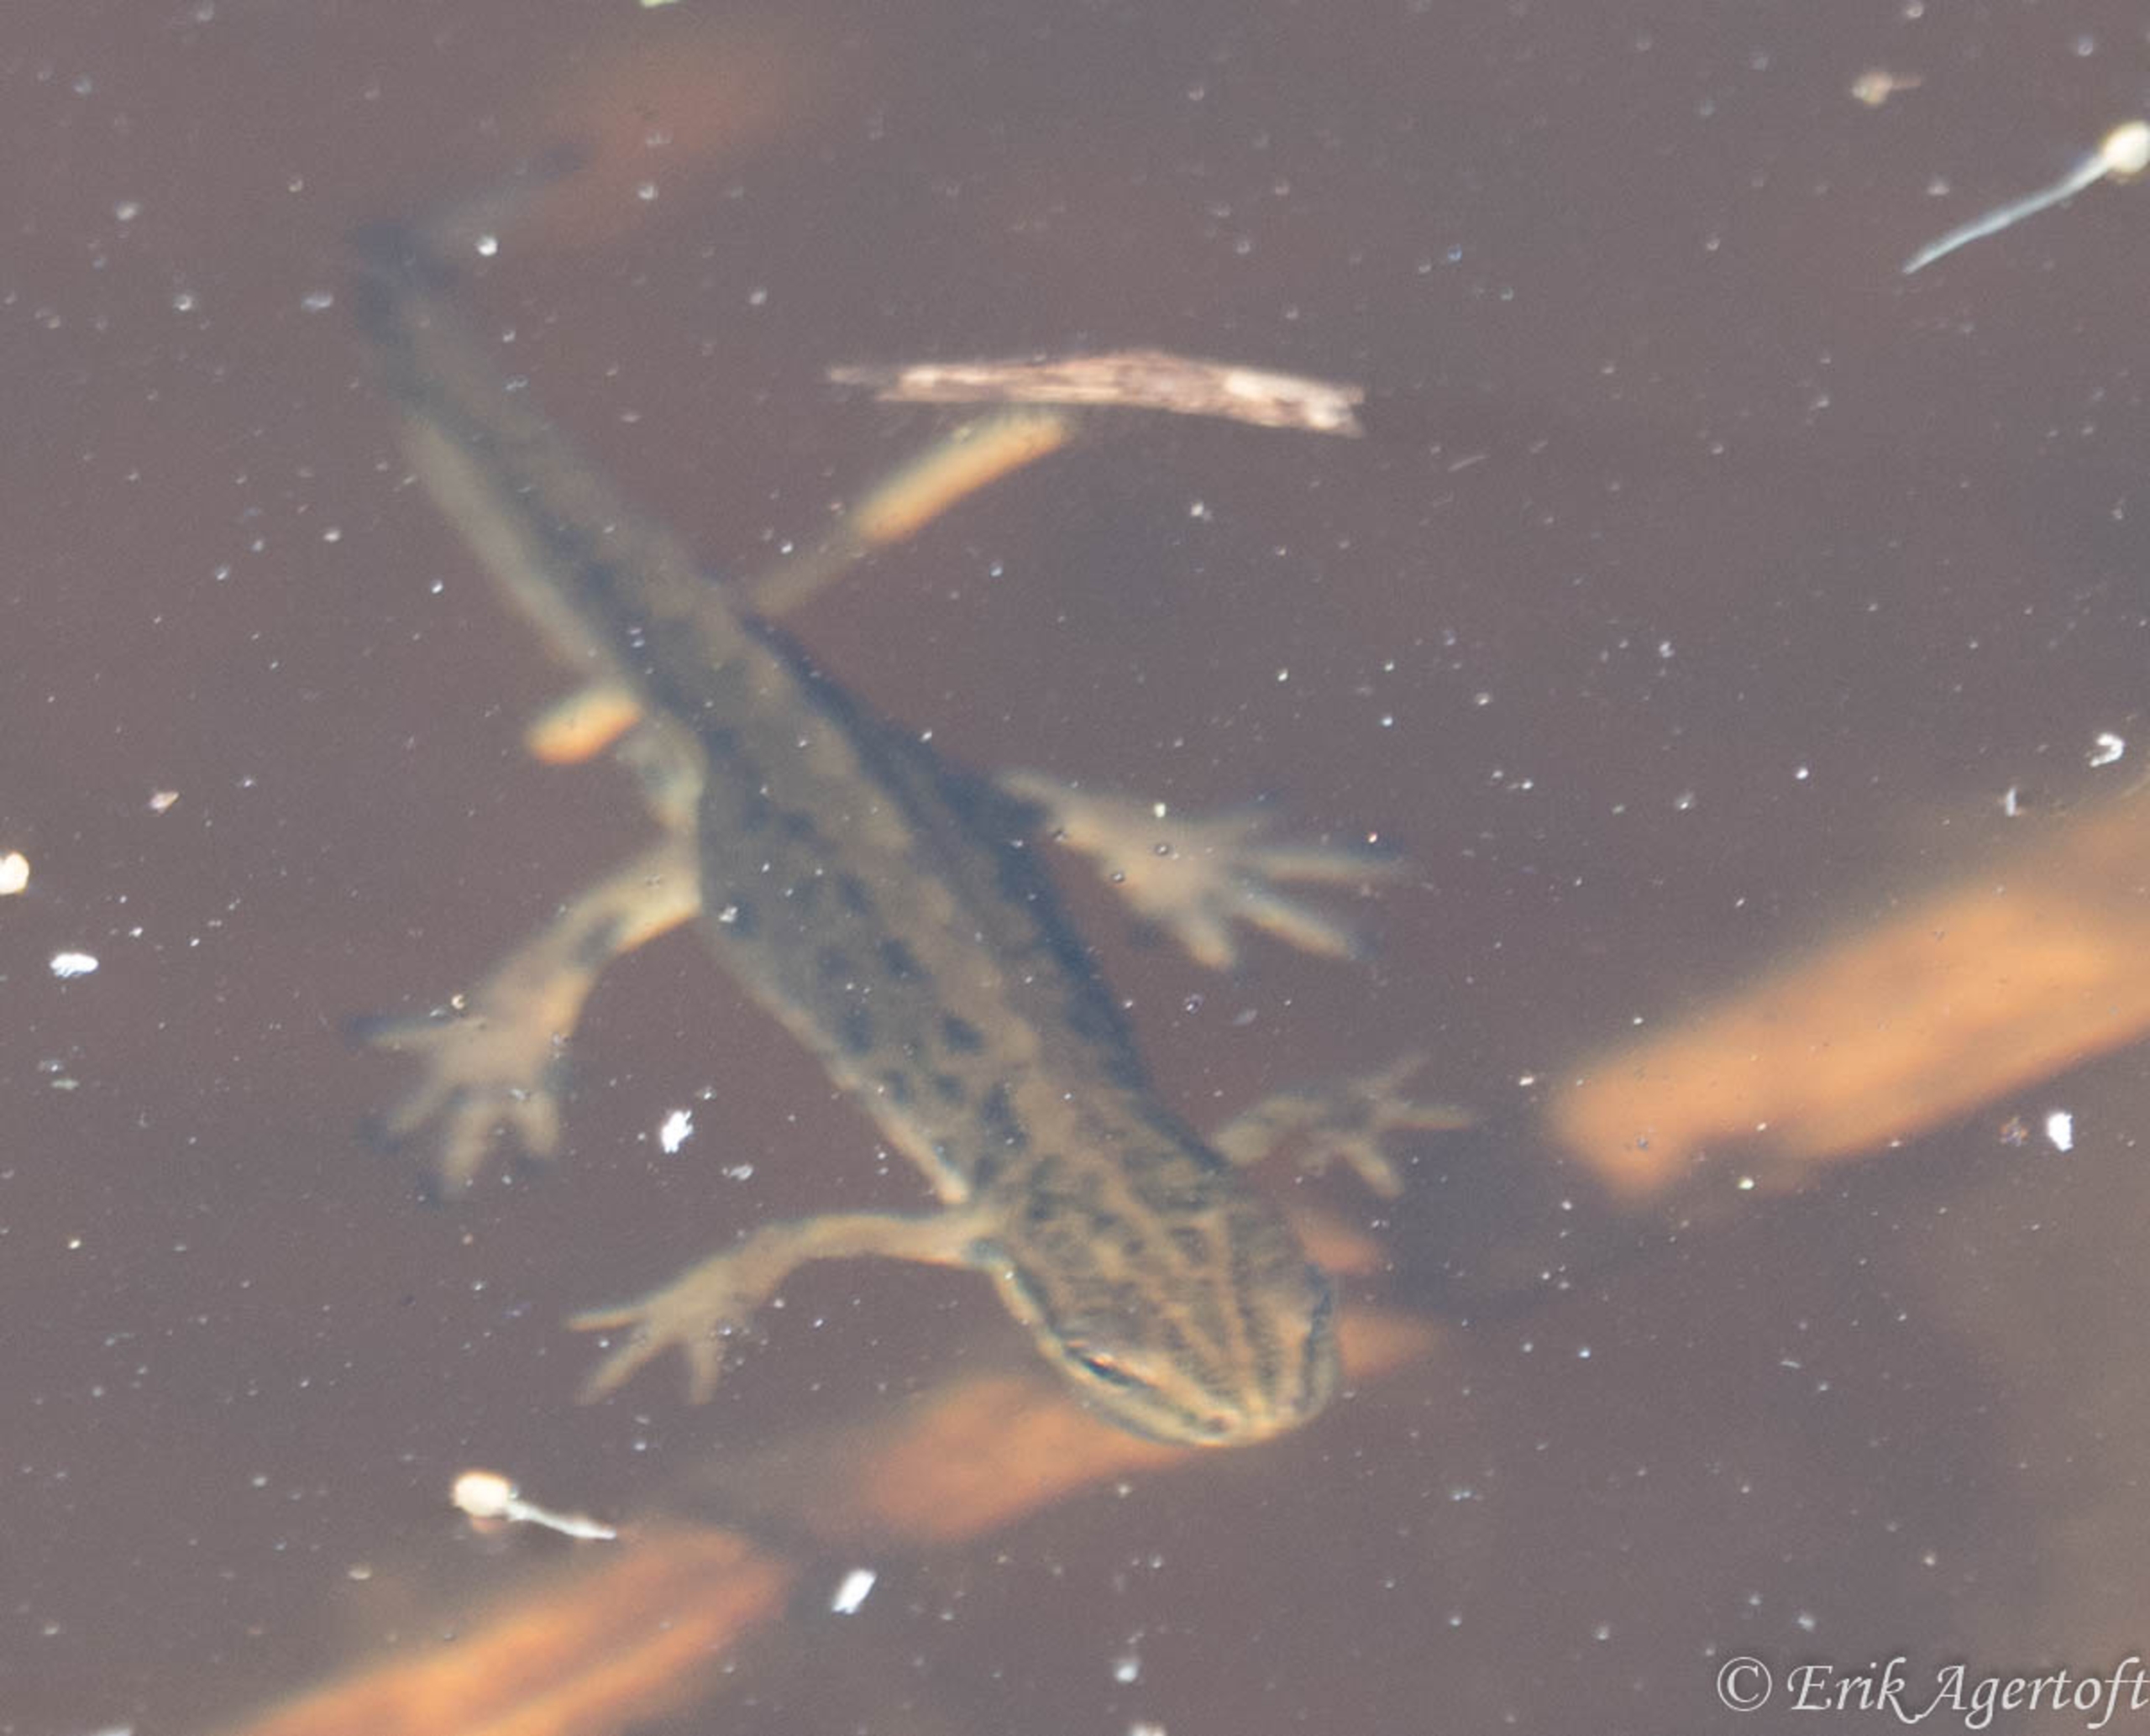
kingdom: Animalia
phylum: Chordata
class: Amphibia
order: Caudata
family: Salamandridae
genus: Lissotriton
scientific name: Lissotriton vulgaris
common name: Lille vandsalamander
